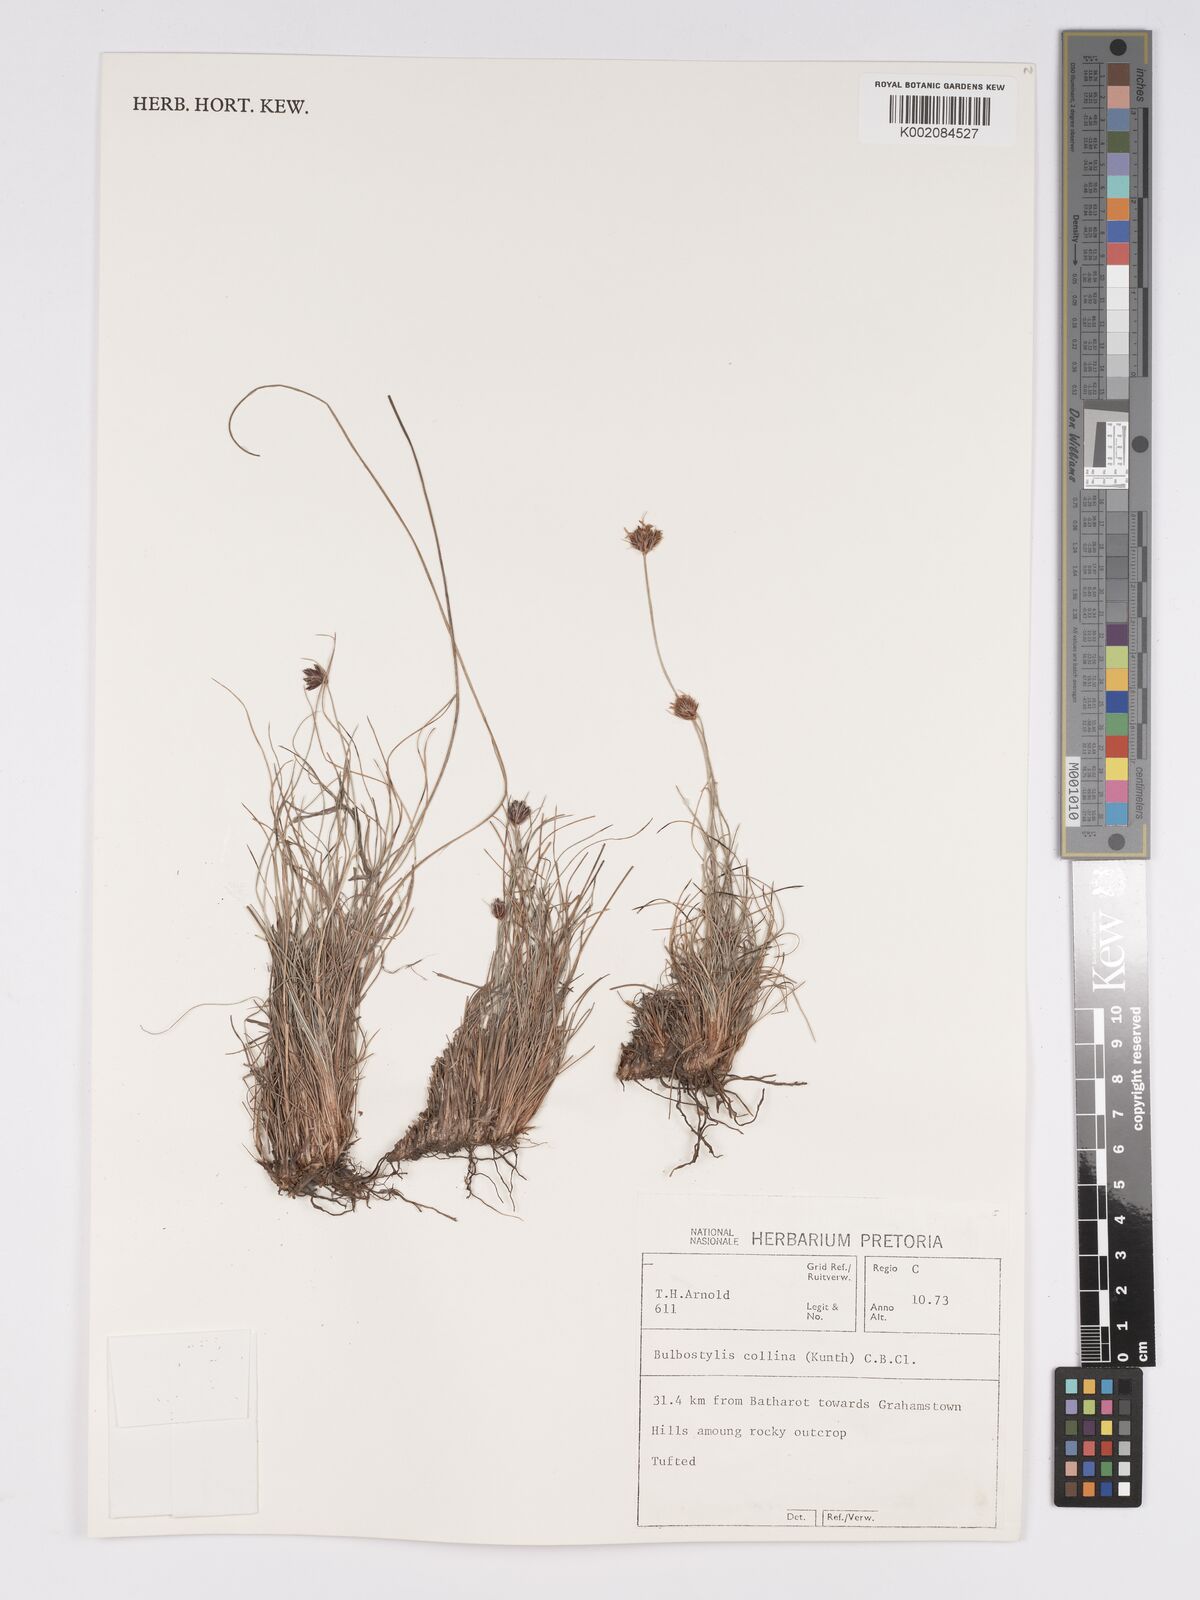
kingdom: Plantae
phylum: Tracheophyta
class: Liliopsida
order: Poales
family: Cyperaceae
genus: Bulbostylis
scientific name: Bulbostylis contexta
